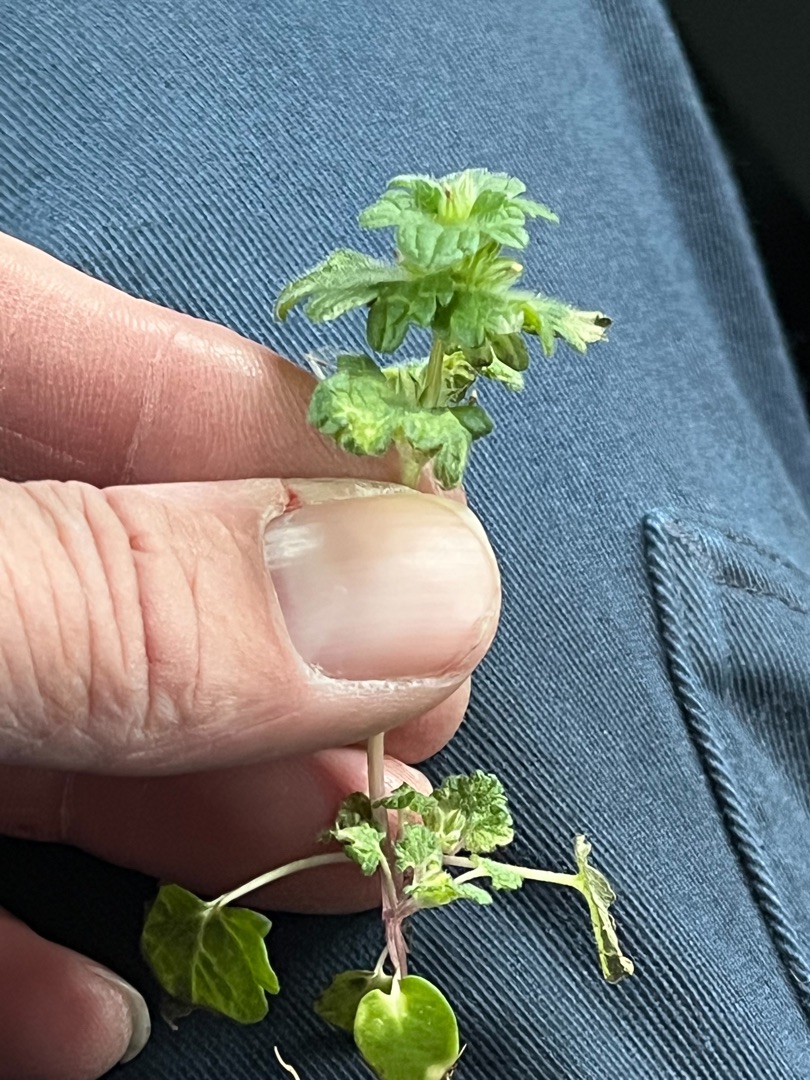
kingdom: Plantae
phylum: Tracheophyta
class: Magnoliopsida
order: Lamiales
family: Lamiaceae
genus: Lamium
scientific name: Lamium amplexicaule
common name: Liden tvetand
